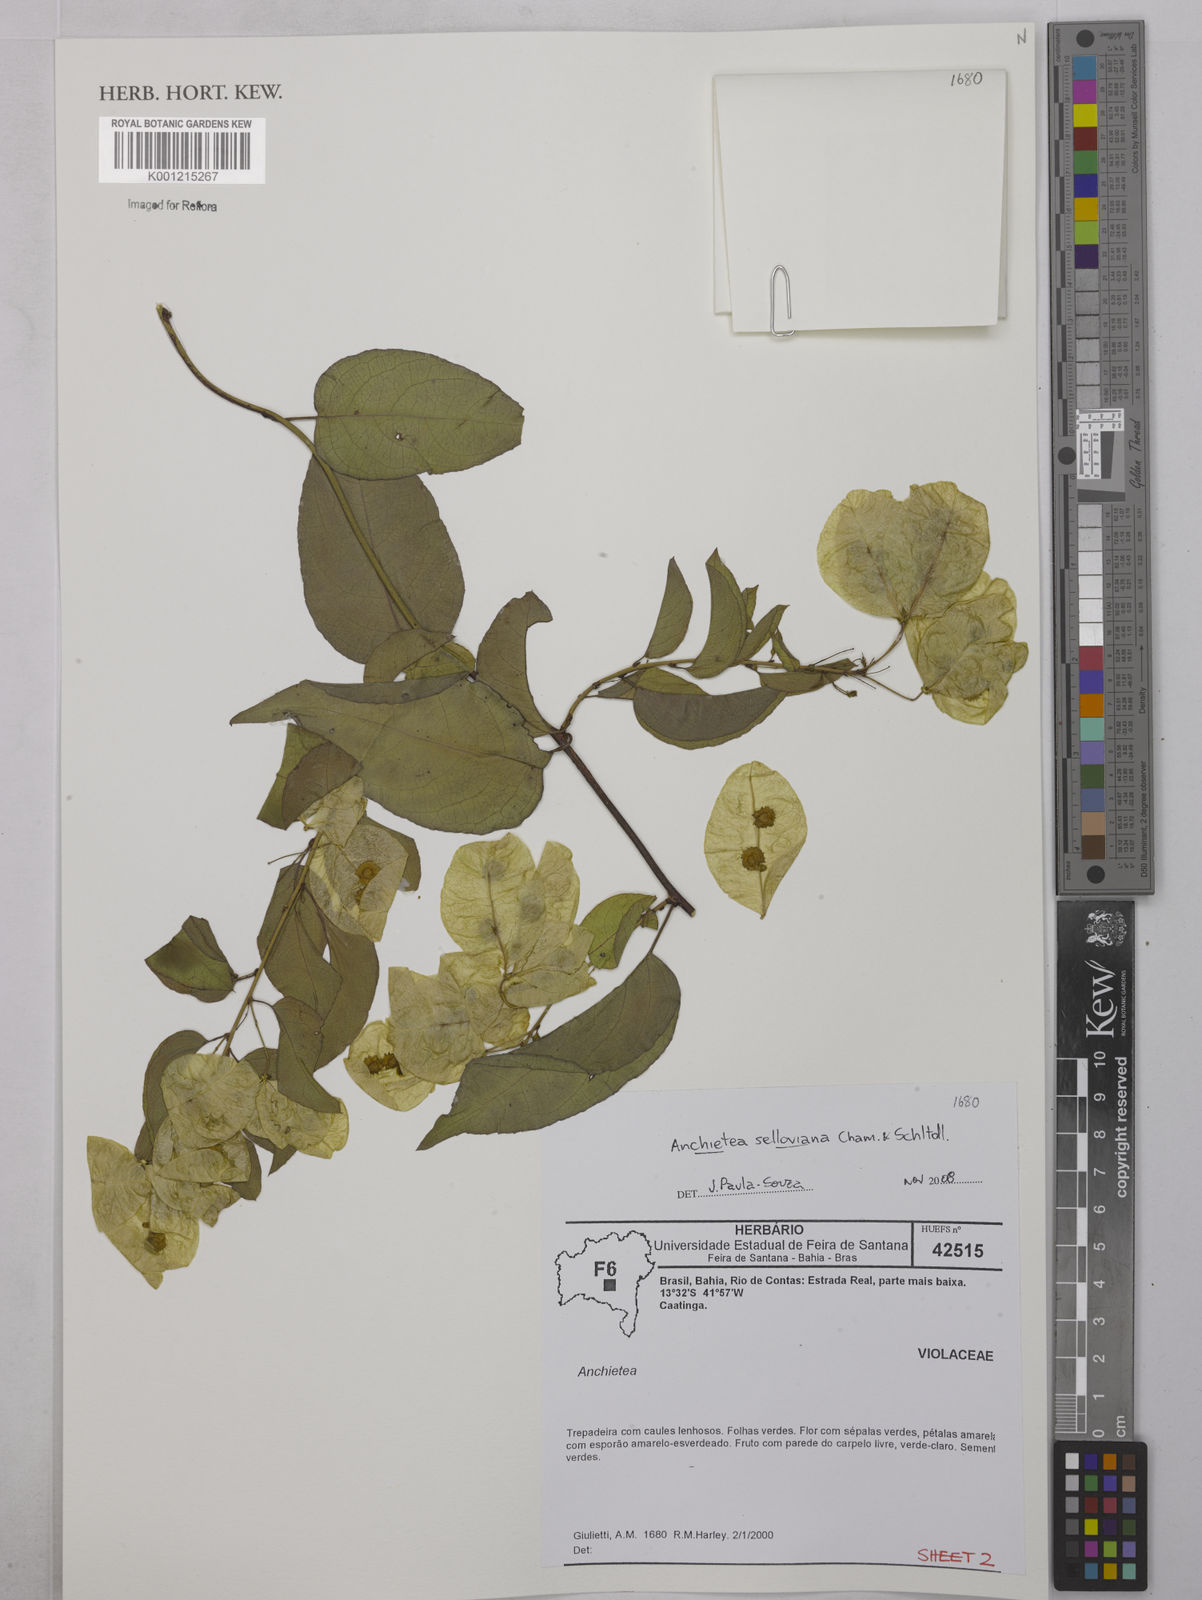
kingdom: Plantae
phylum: Tracheophyta
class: Magnoliopsida
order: Malpighiales
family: Violaceae
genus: Anchietea
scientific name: Anchietea sellowiana
